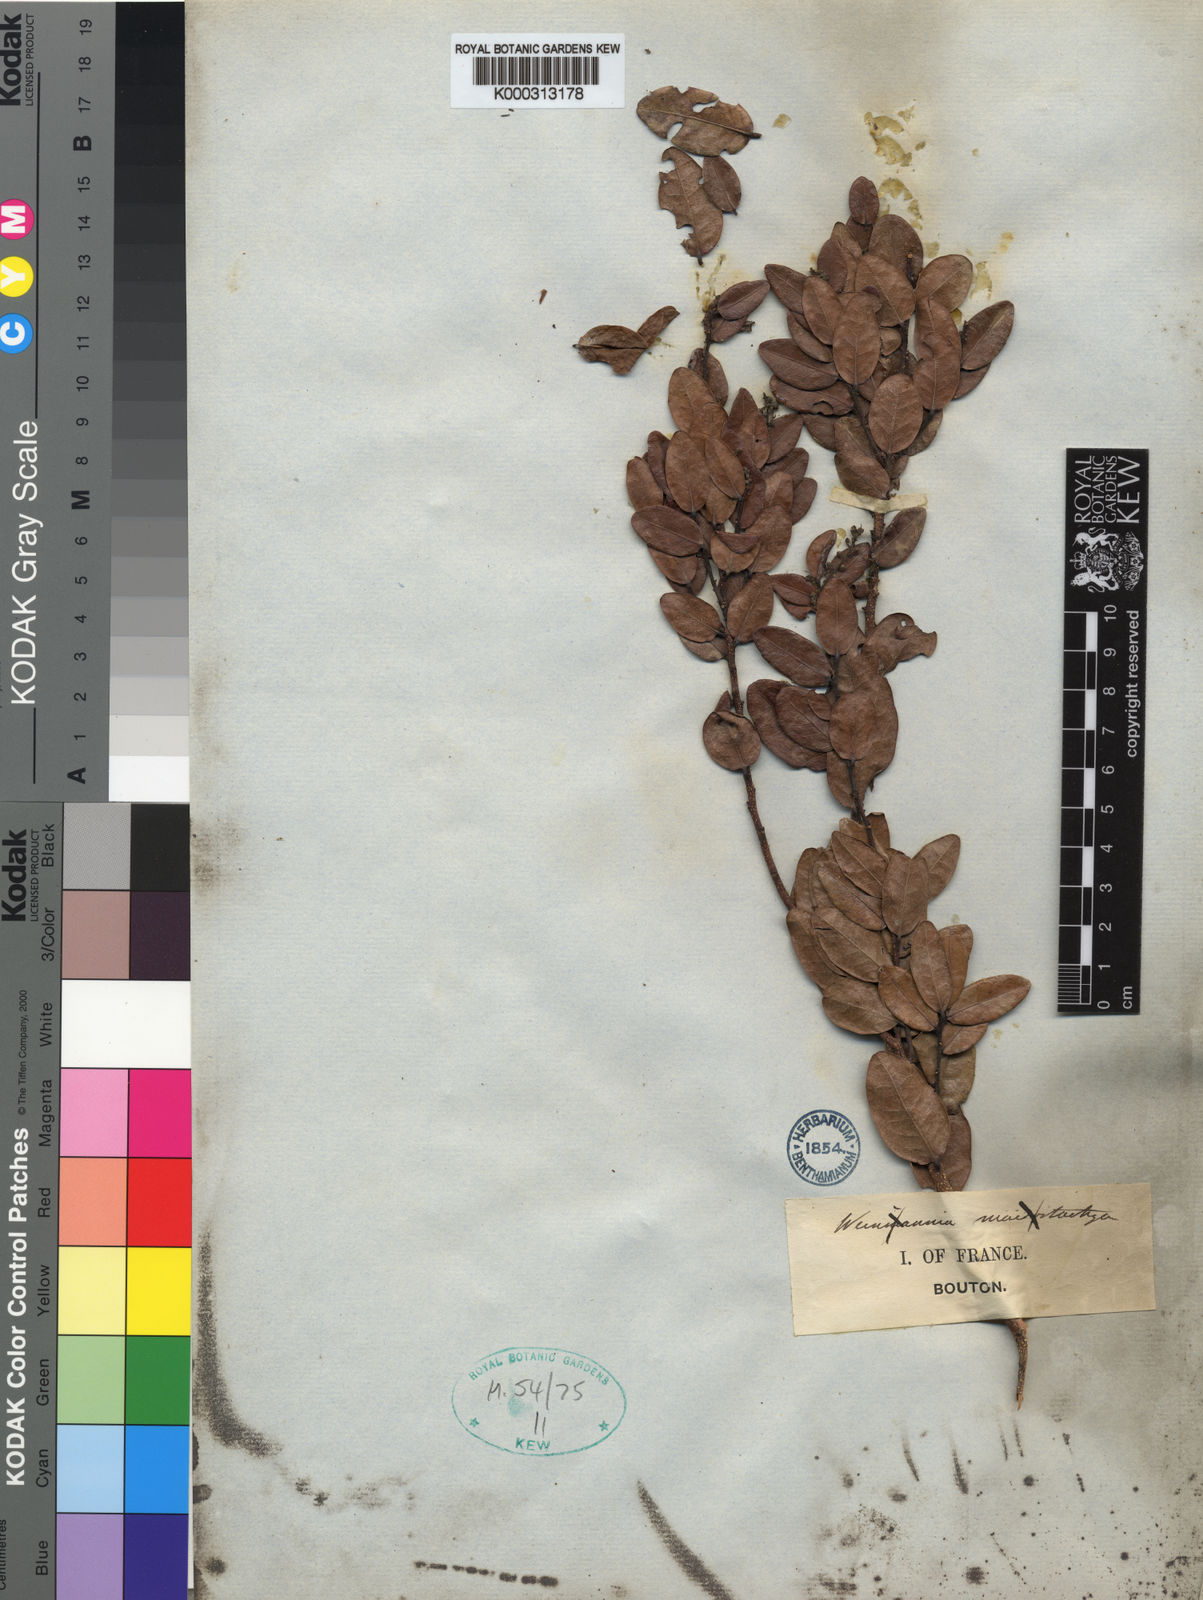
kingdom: Plantae
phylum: Tracheophyta
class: Magnoliopsida
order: Malpighiales
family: Chrysobalanaceae
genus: Grangeria
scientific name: Grangeria borbonica
